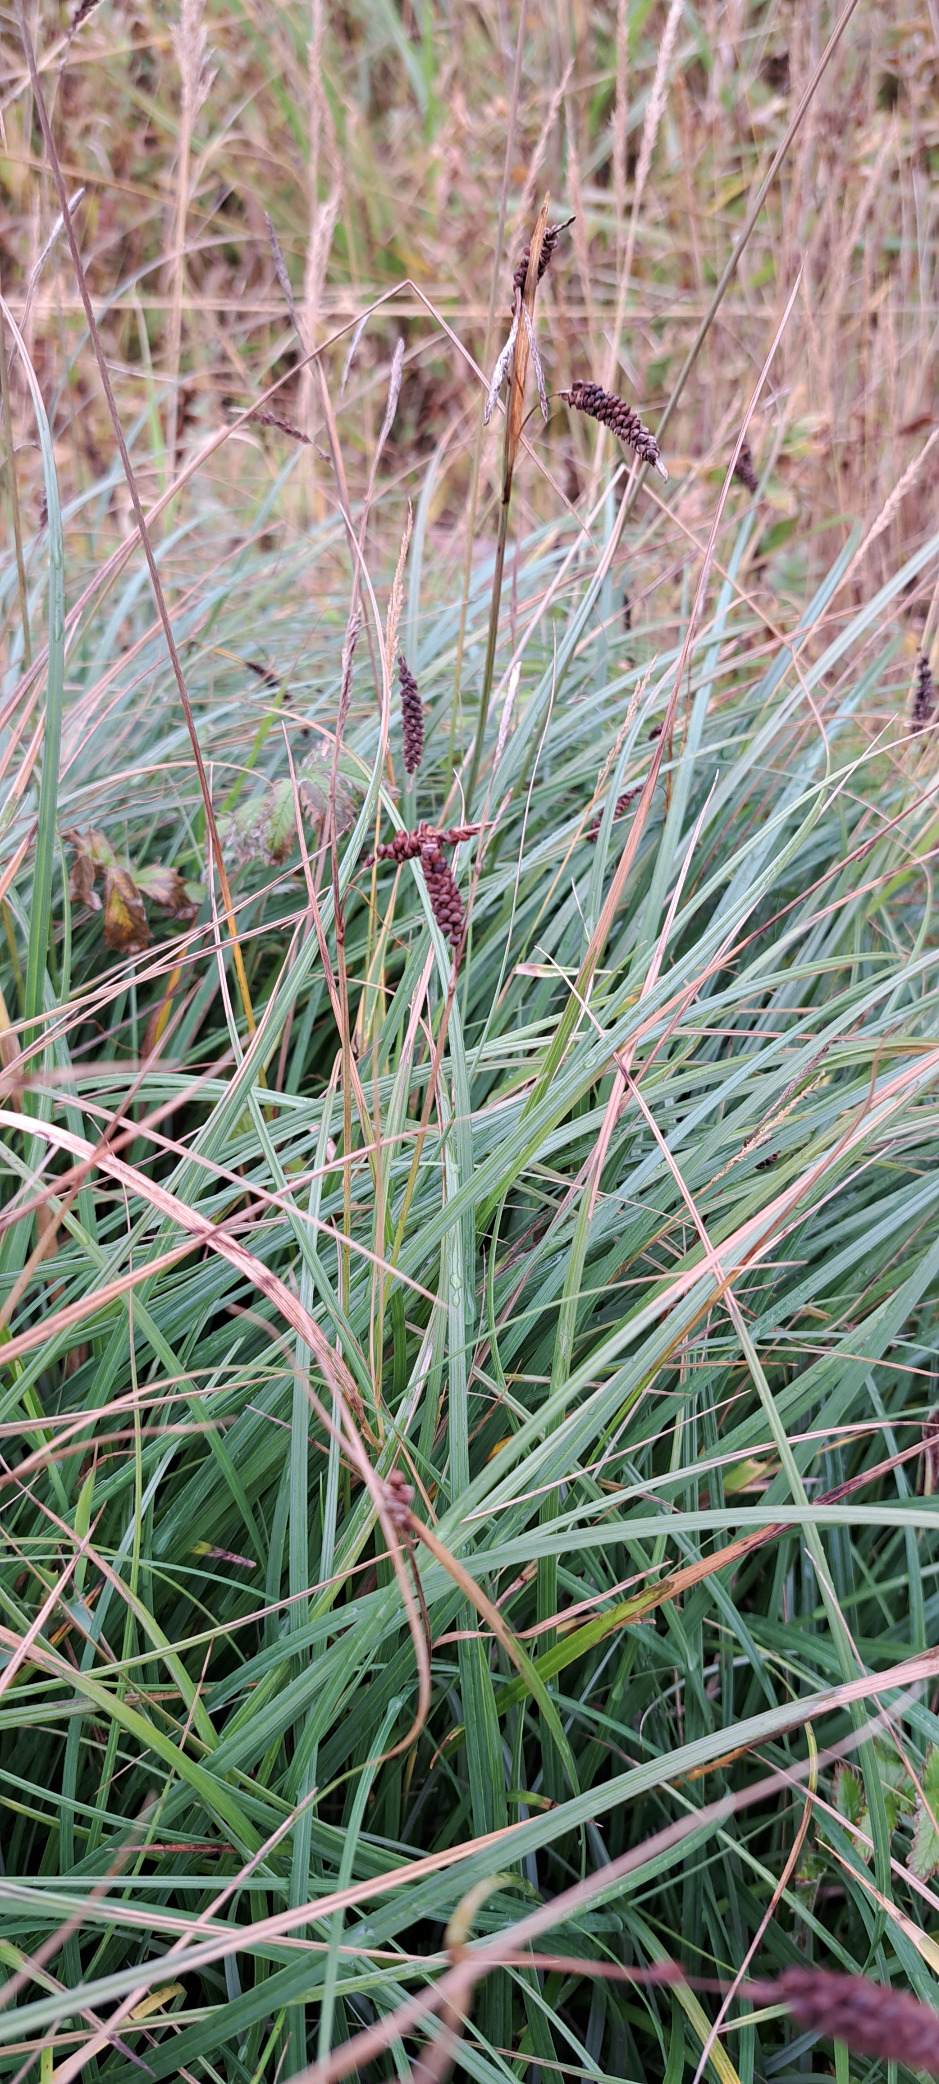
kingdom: Plantae
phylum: Tracheophyta
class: Liliopsida
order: Poales
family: Cyperaceae
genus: Carex
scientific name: Carex flacca
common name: Blågrøn star
